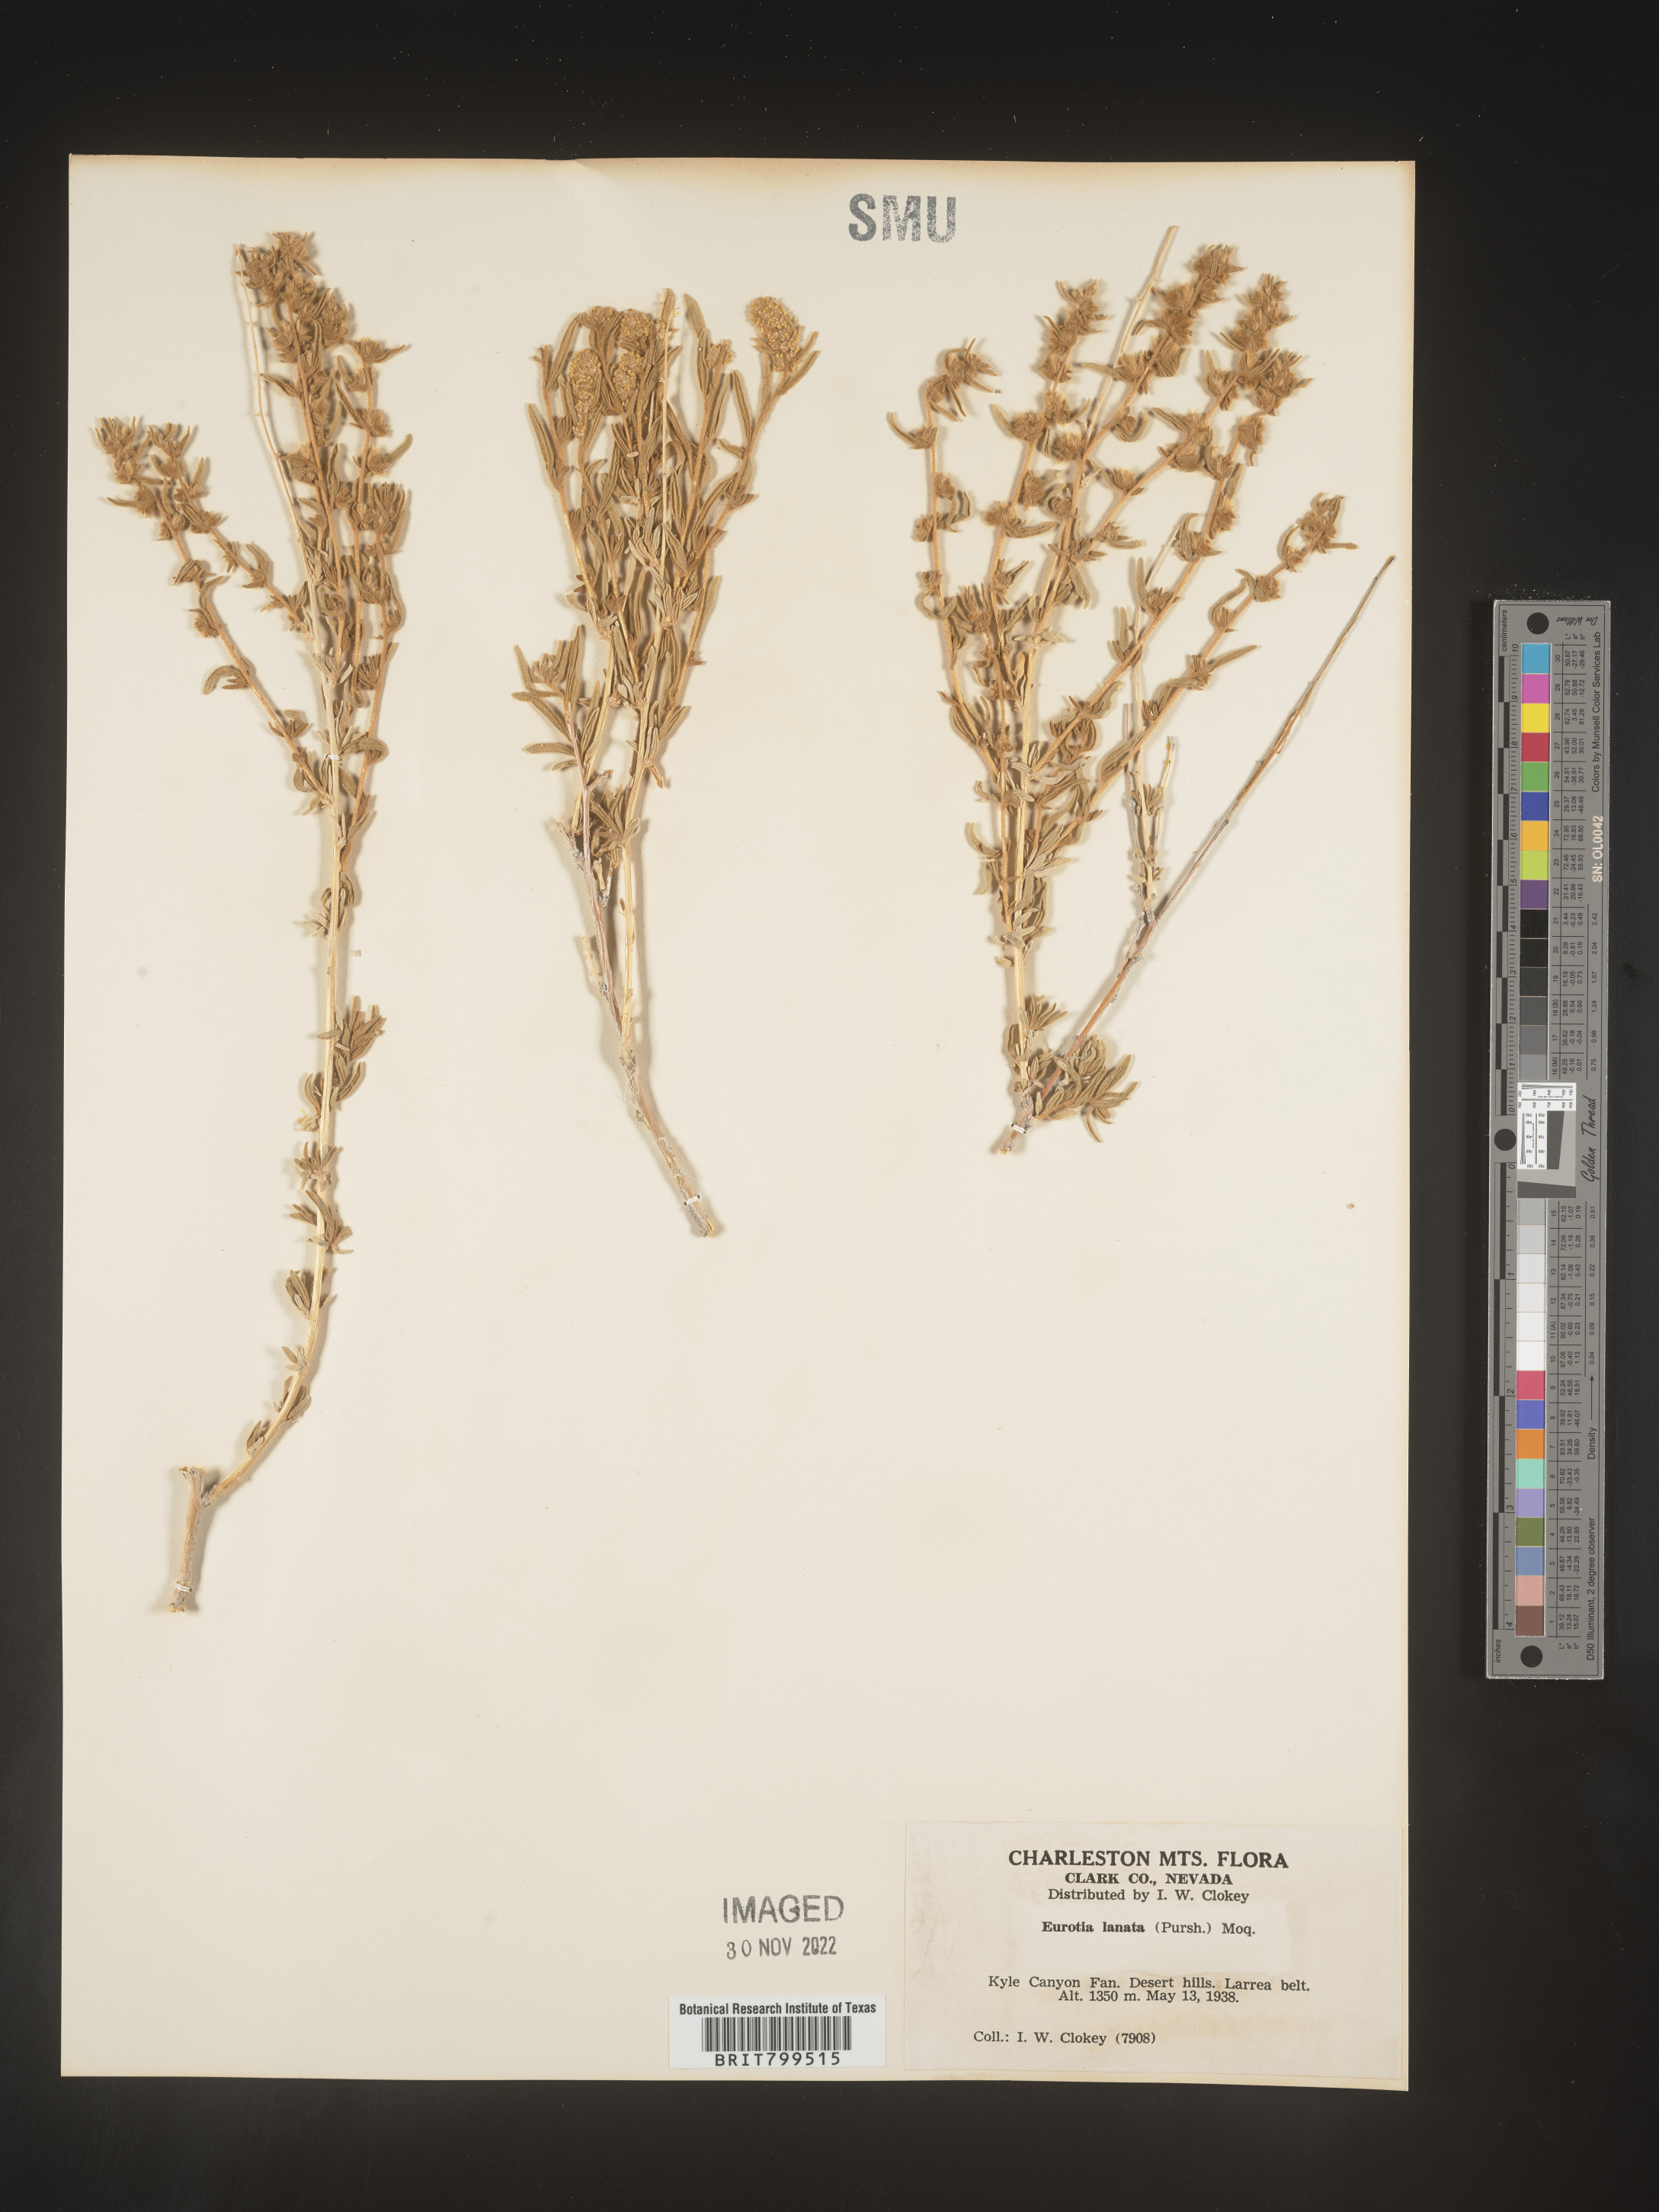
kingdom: Plantae
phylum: Tracheophyta
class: Magnoliopsida
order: Caryophyllales
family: Amaranthaceae
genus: Krascheninnikovia
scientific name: Krascheninnikovia
